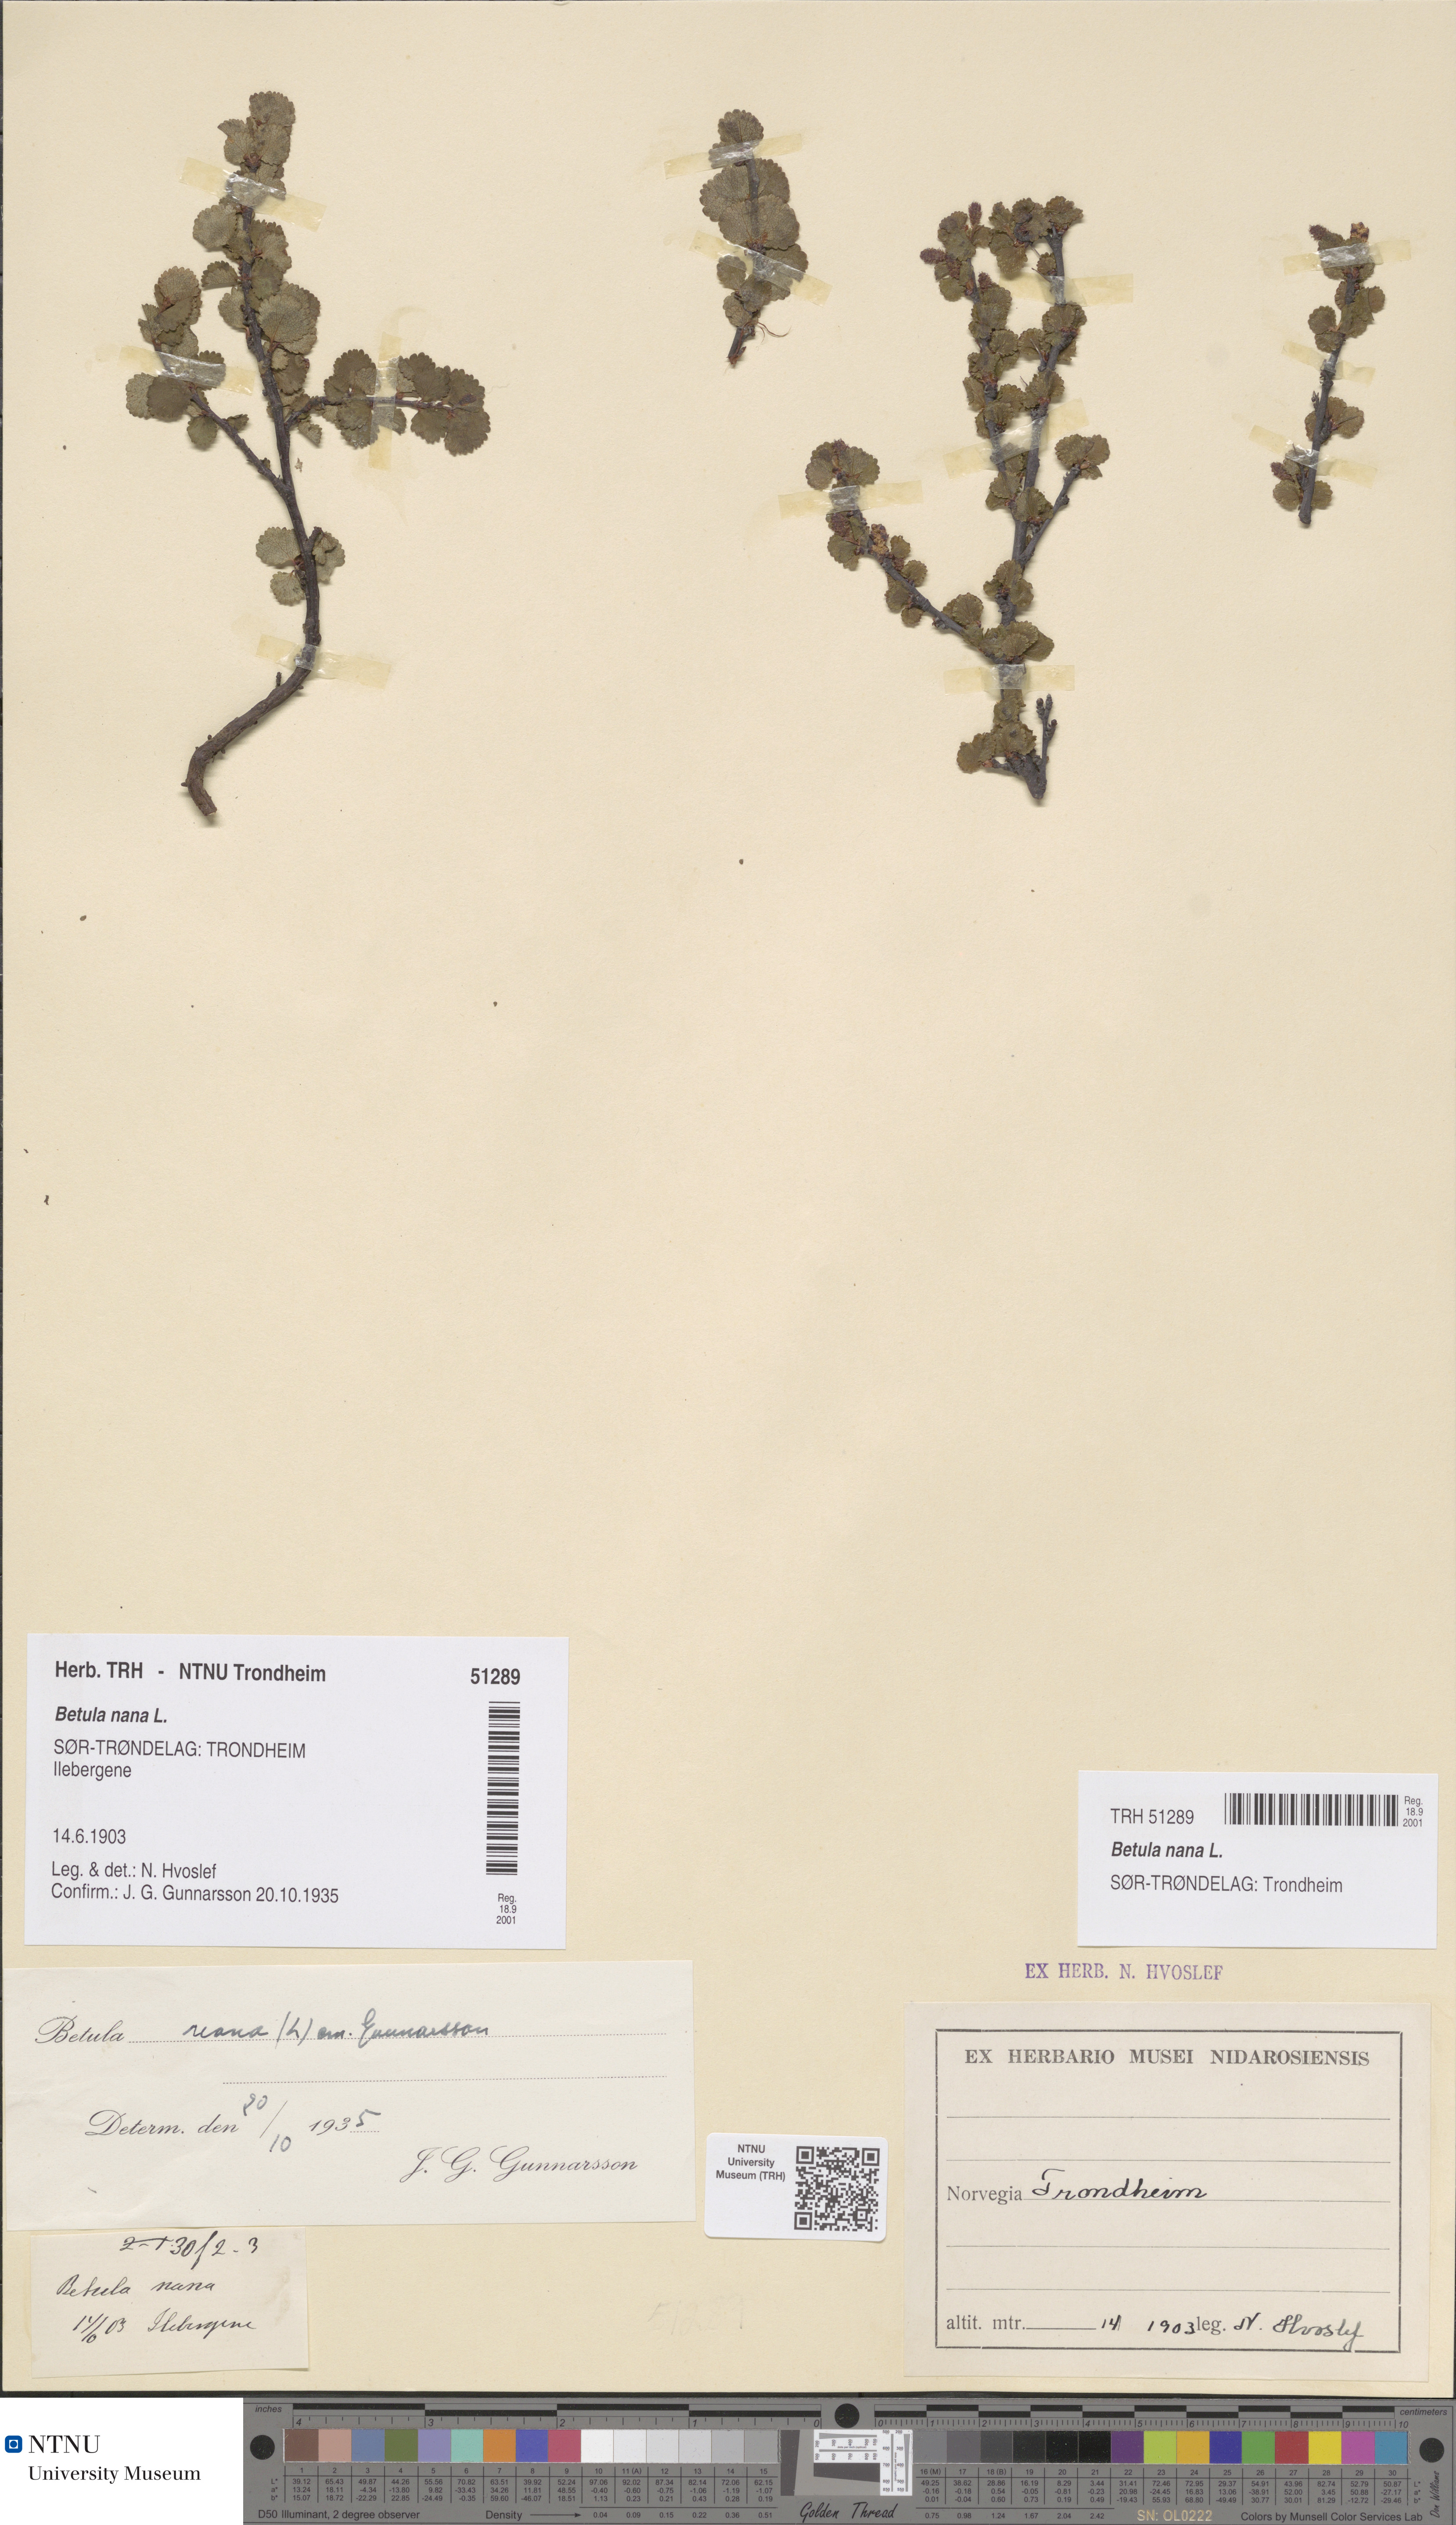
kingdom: Plantae
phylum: Tracheophyta
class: Magnoliopsida
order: Fagales
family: Betulaceae
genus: Betula
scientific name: Betula nana
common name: Arctic dwarf birch
